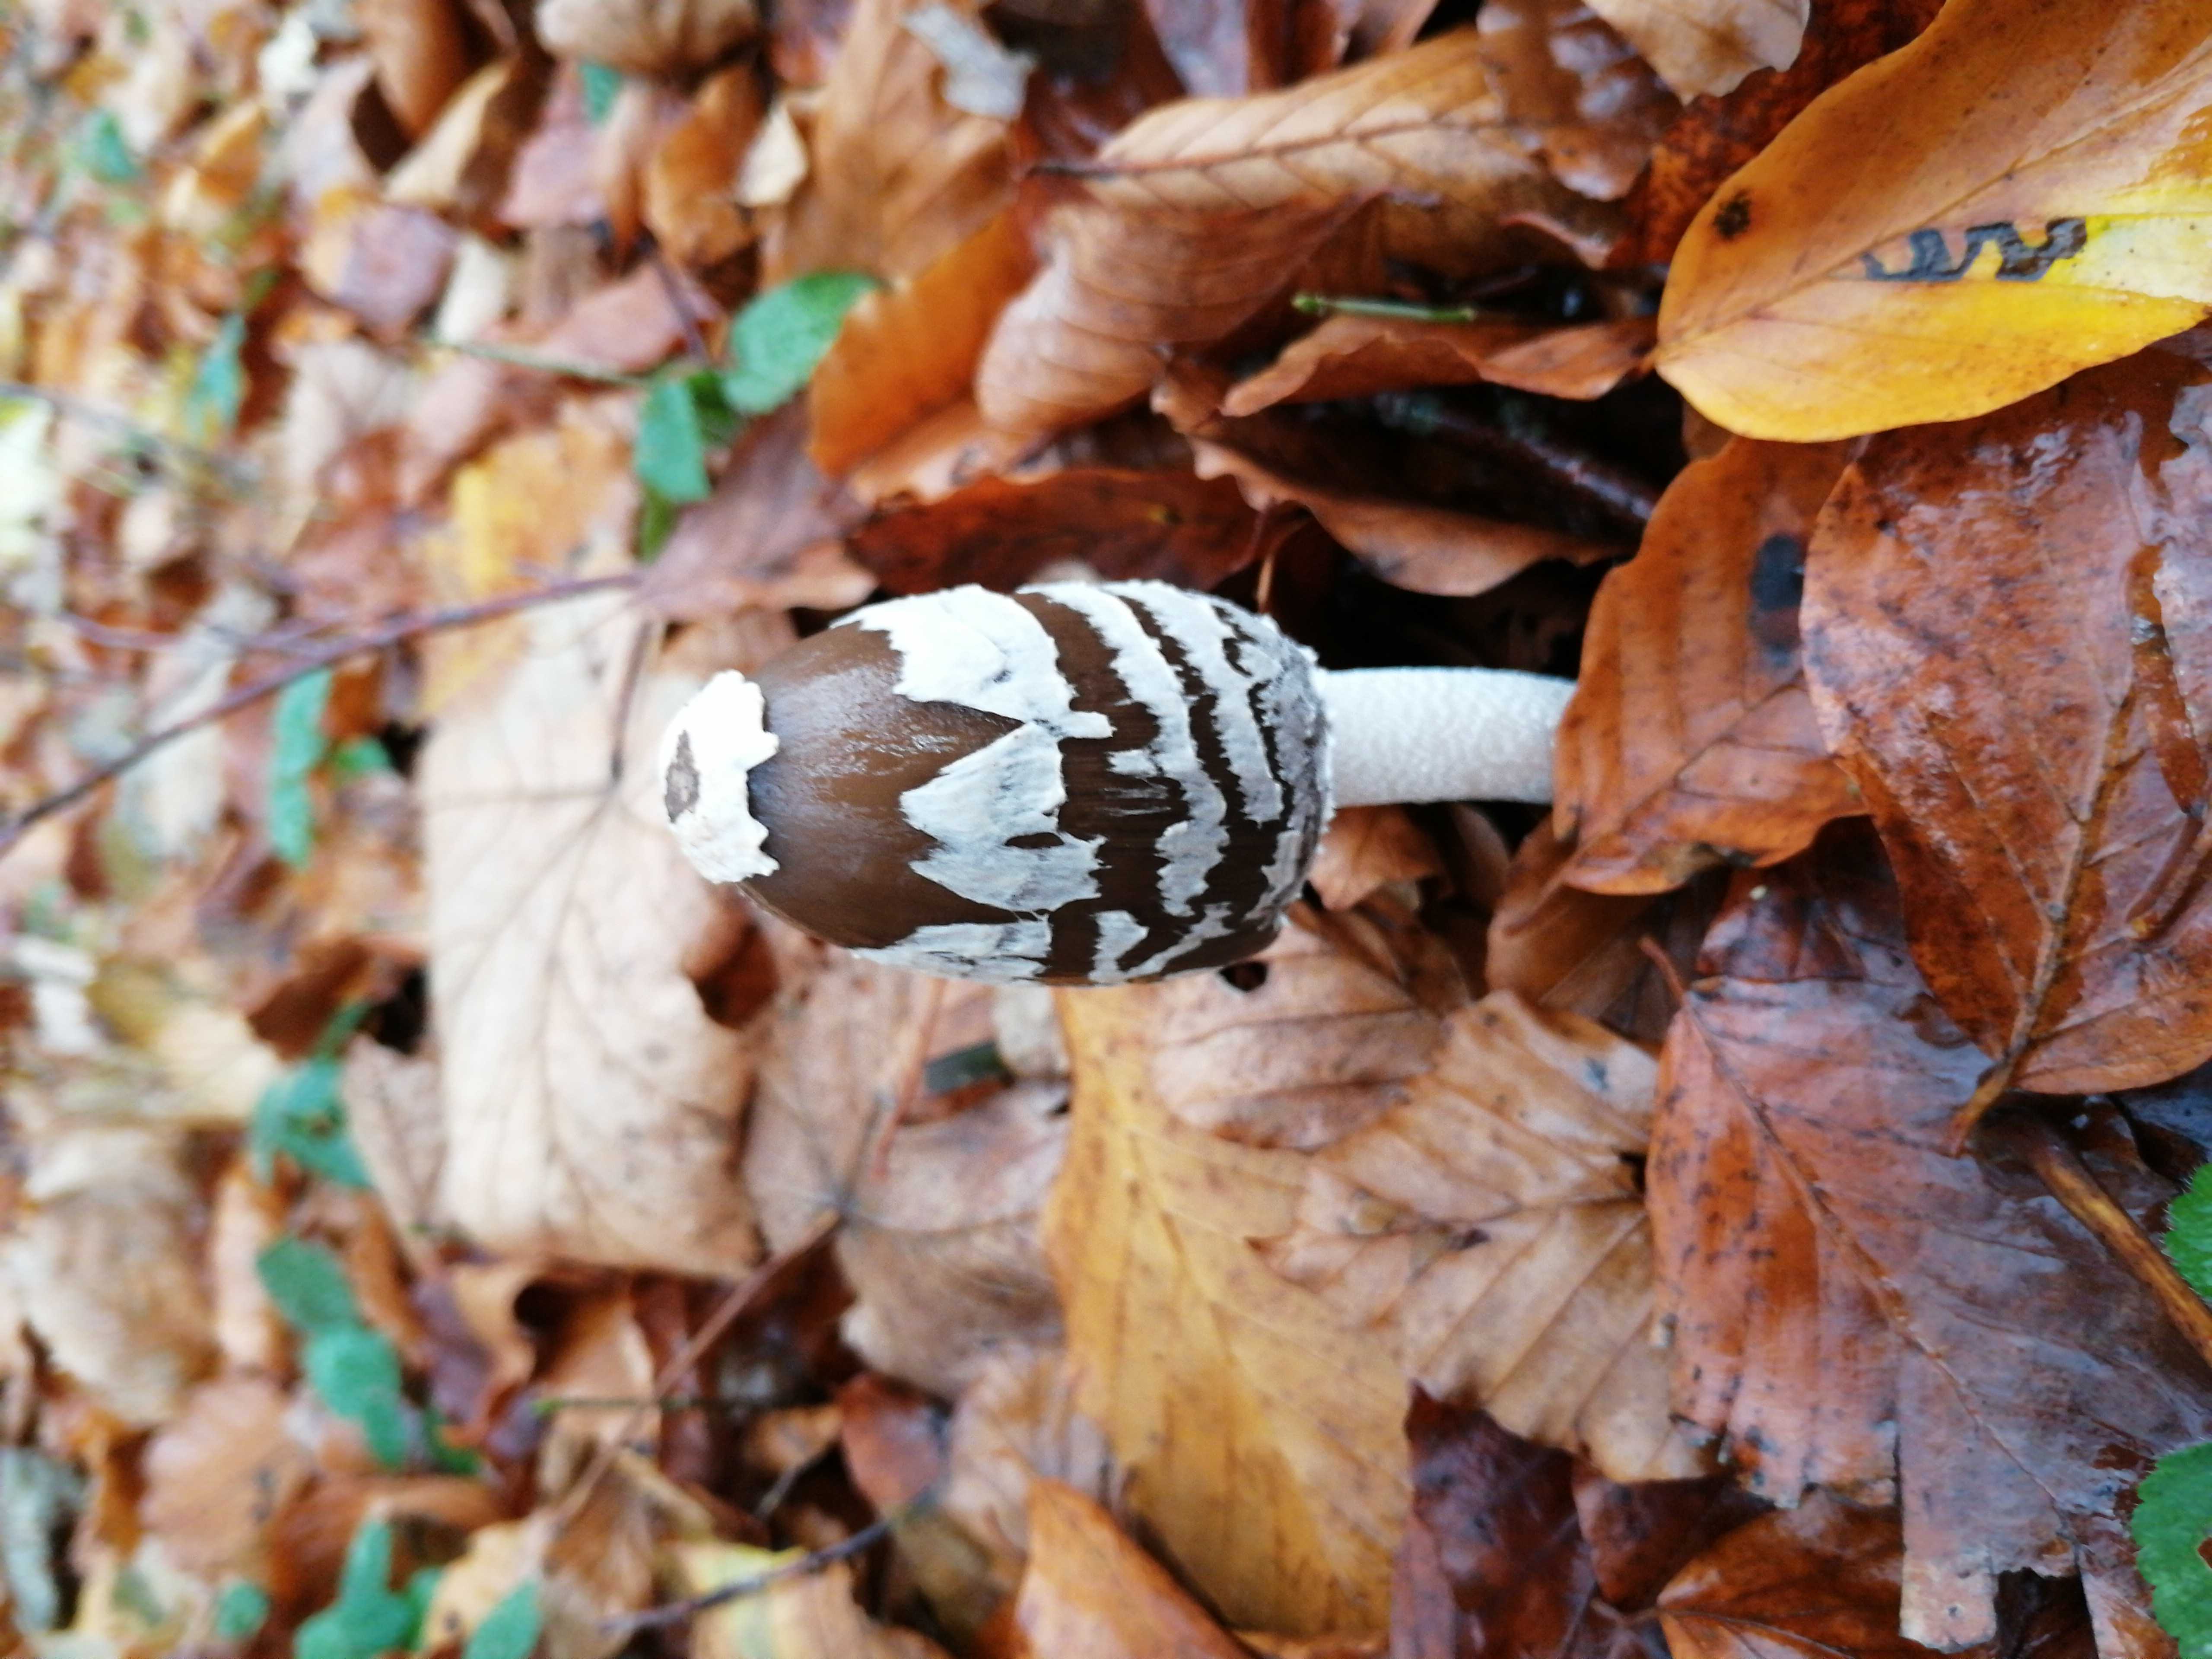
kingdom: Fungi
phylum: Basidiomycota
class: Agaricomycetes
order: Agaricales
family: Psathyrellaceae
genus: Coprinopsis
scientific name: Coprinopsis picacea
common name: skade-blækhat
